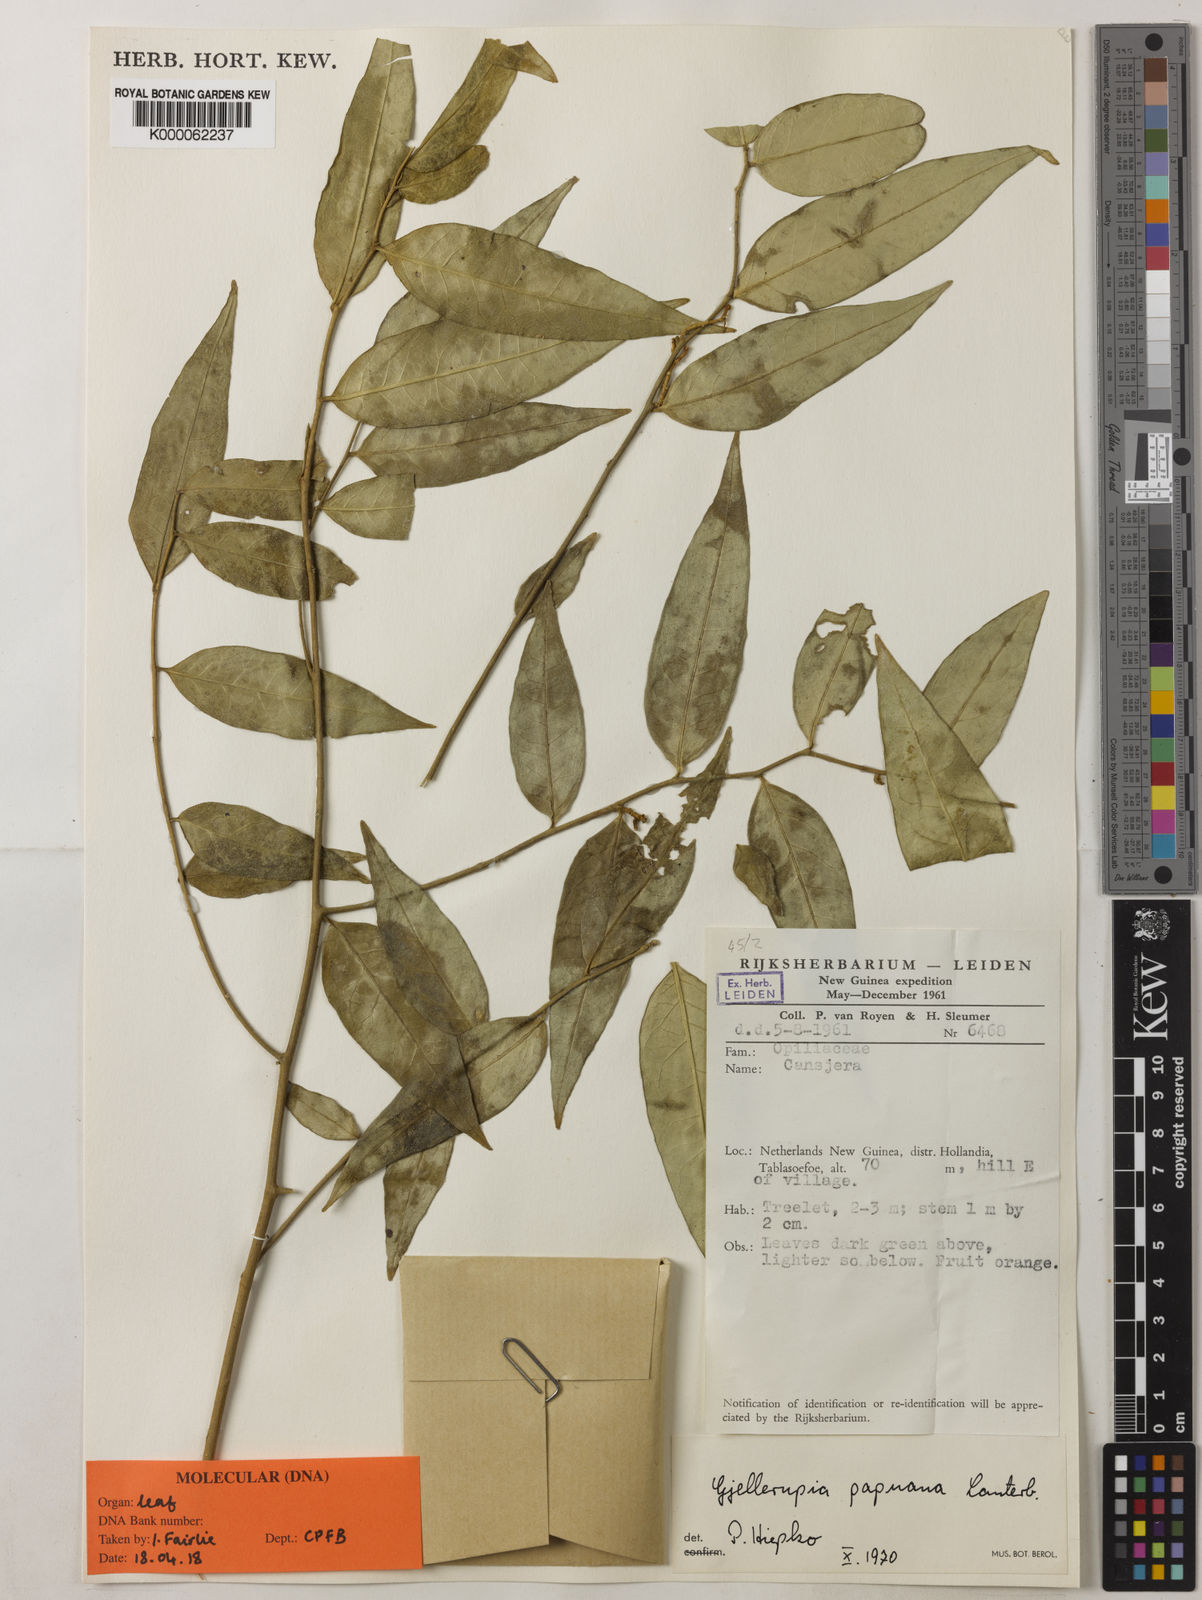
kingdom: Plantae
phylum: Tracheophyta
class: Magnoliopsida
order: Santalales
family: Opiliaceae
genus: Gjellerupia
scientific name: Gjellerupia papuana
